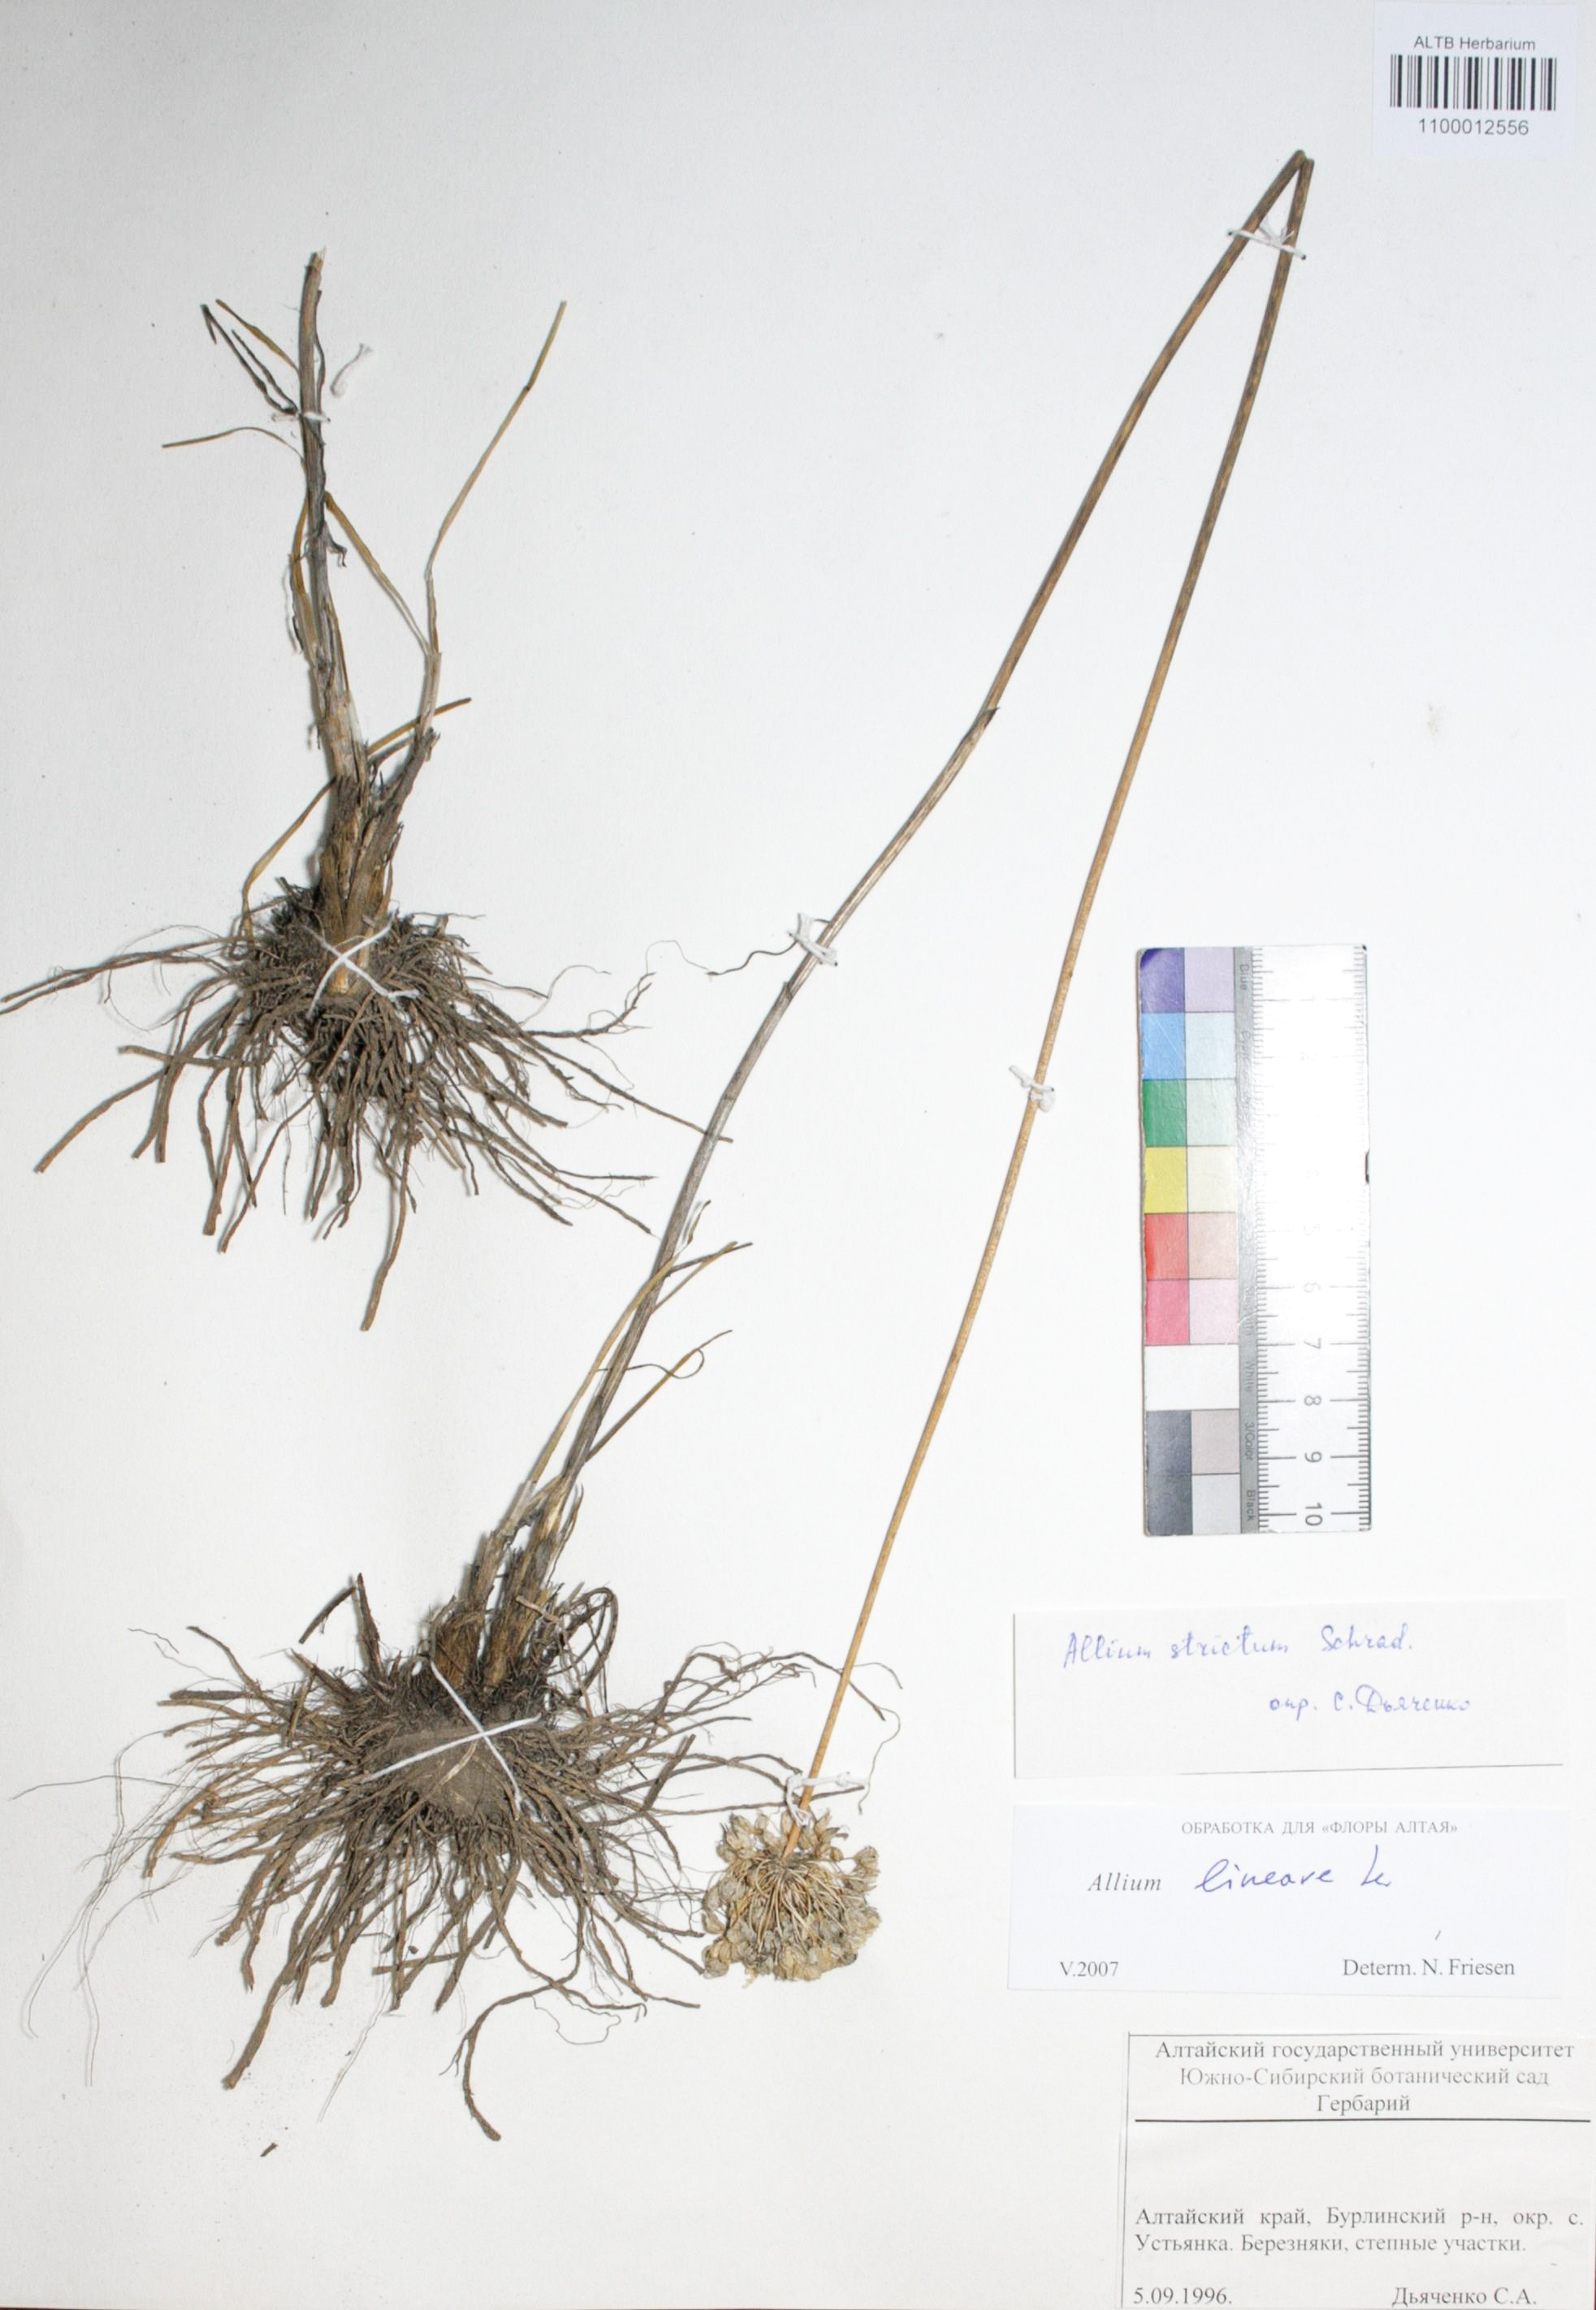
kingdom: Plantae
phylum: Tracheophyta
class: Liliopsida
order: Asparagales
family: Amaryllidaceae
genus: Allium
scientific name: Allium lineare
